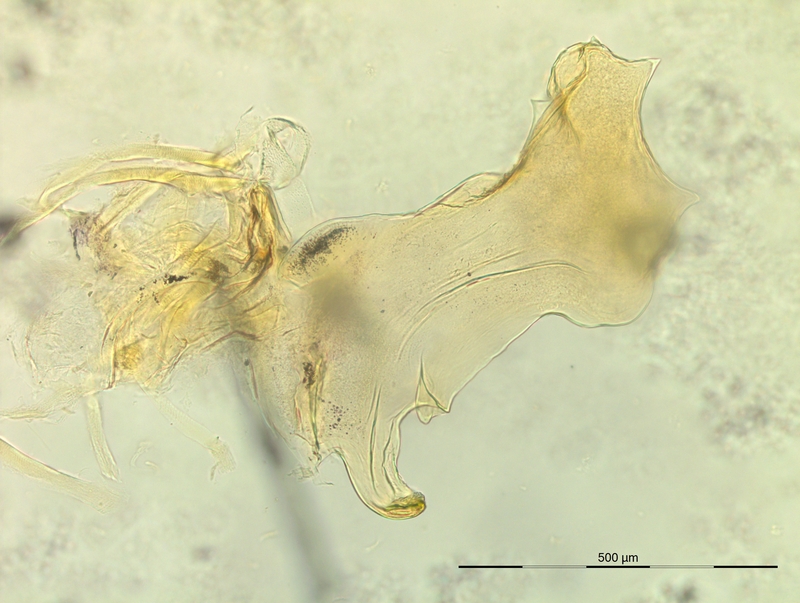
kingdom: Animalia
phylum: Arthropoda
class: Diplopoda
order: Chordeumatida
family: Craspedosomatidae
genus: Rhymogona
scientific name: Rhymogona wehrana
